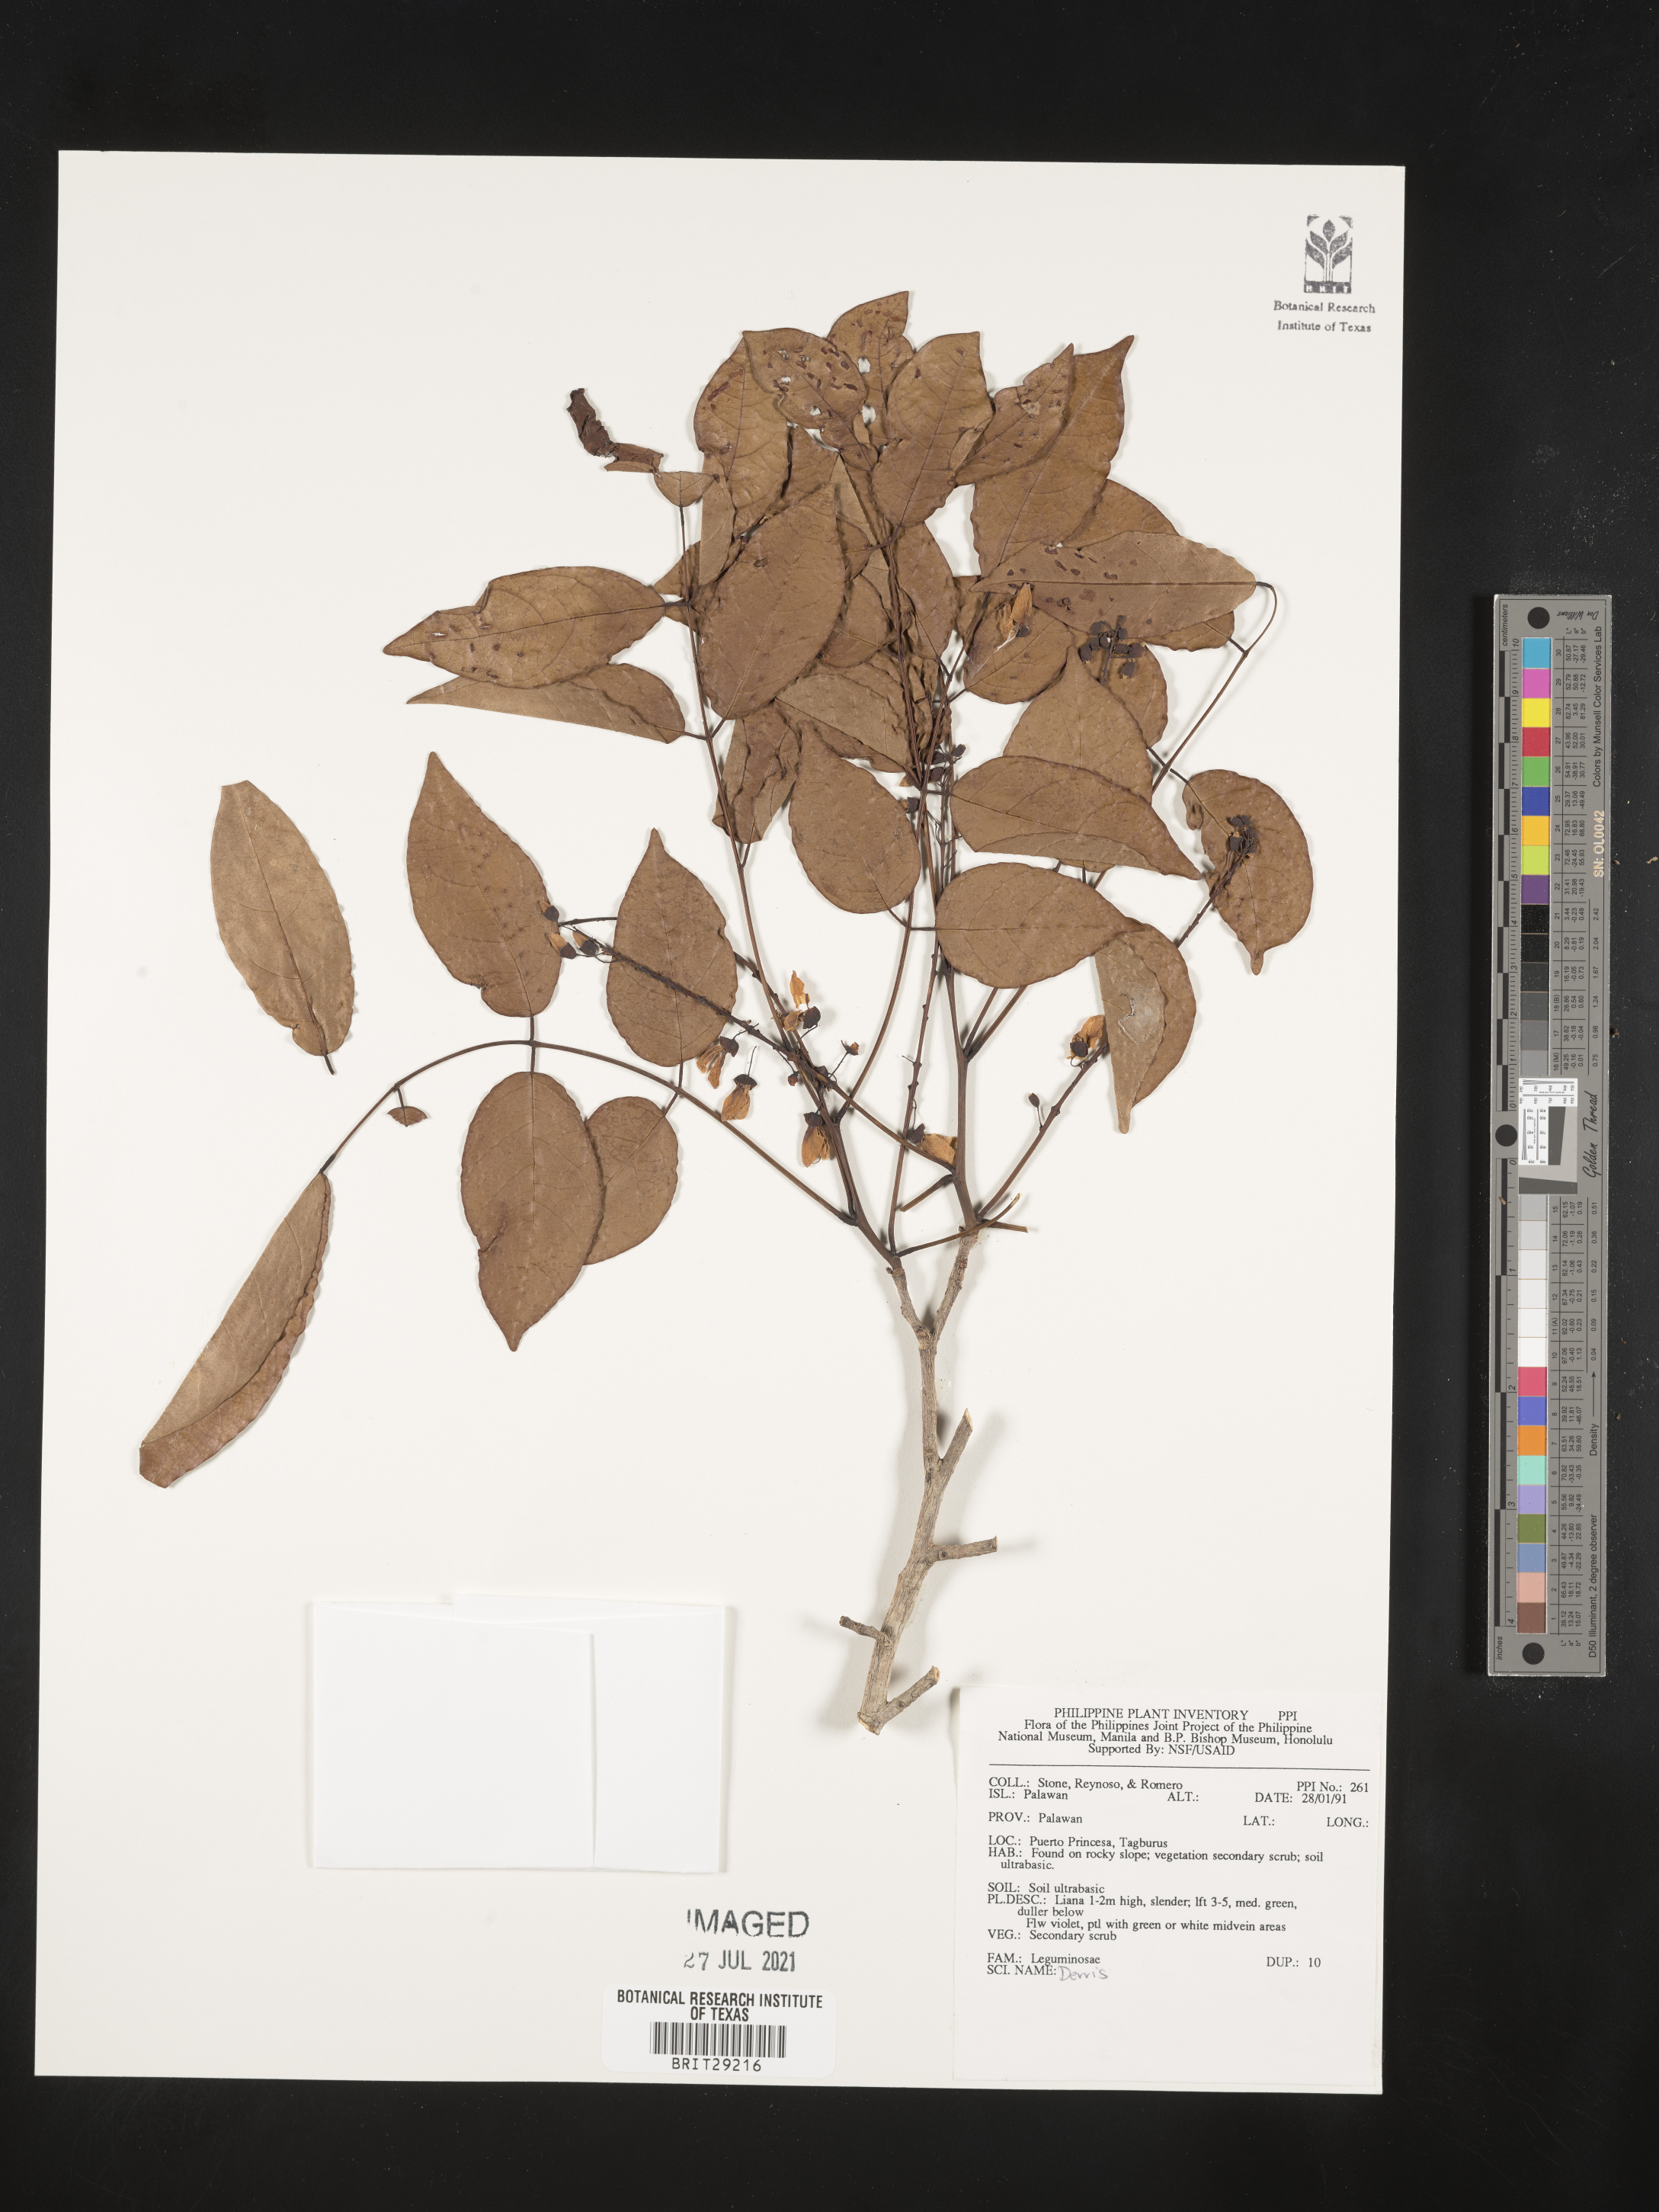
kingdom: Plantae
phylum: Tracheophyta
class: Magnoliopsida
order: Fabales
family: Fabaceae
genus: Derris
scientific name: Derris
